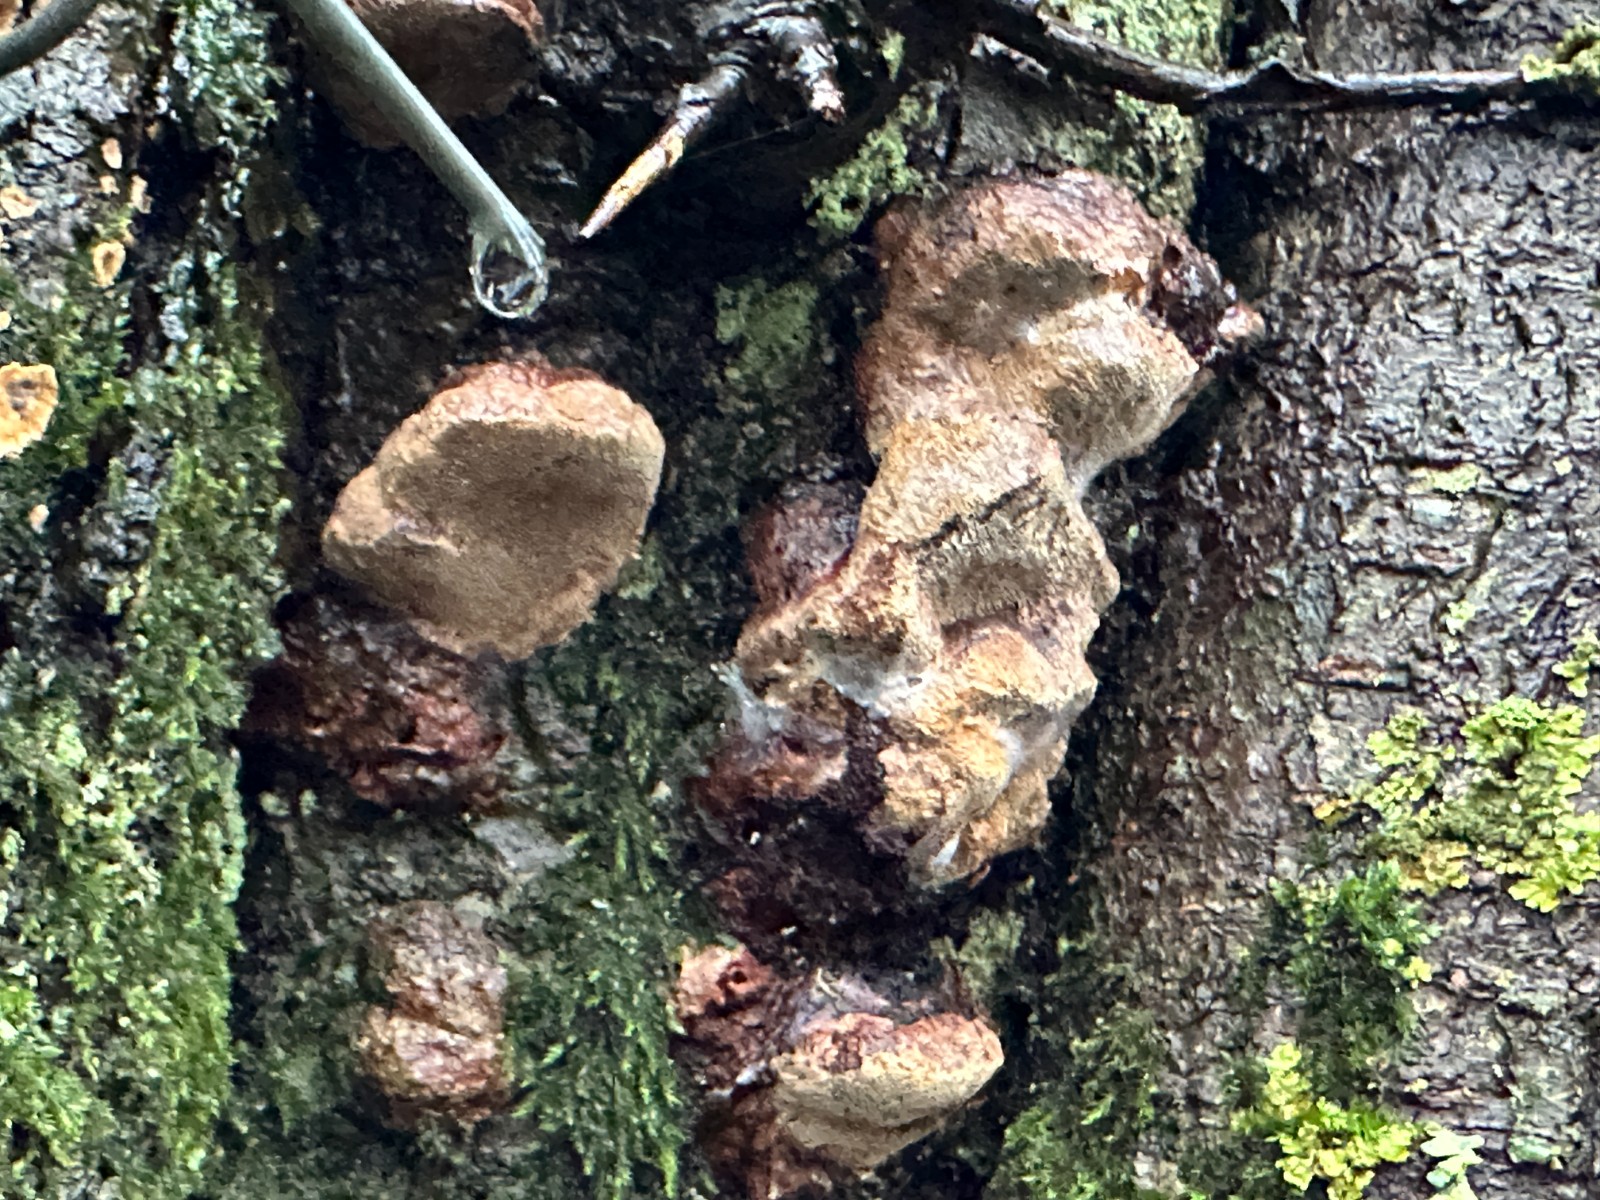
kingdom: Fungi
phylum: Basidiomycota
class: Agaricomycetes
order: Hymenochaetales
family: Hymenochaetaceae
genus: Phellinus
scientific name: Phellinus pomaceus
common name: blomme-ildporesvamp
